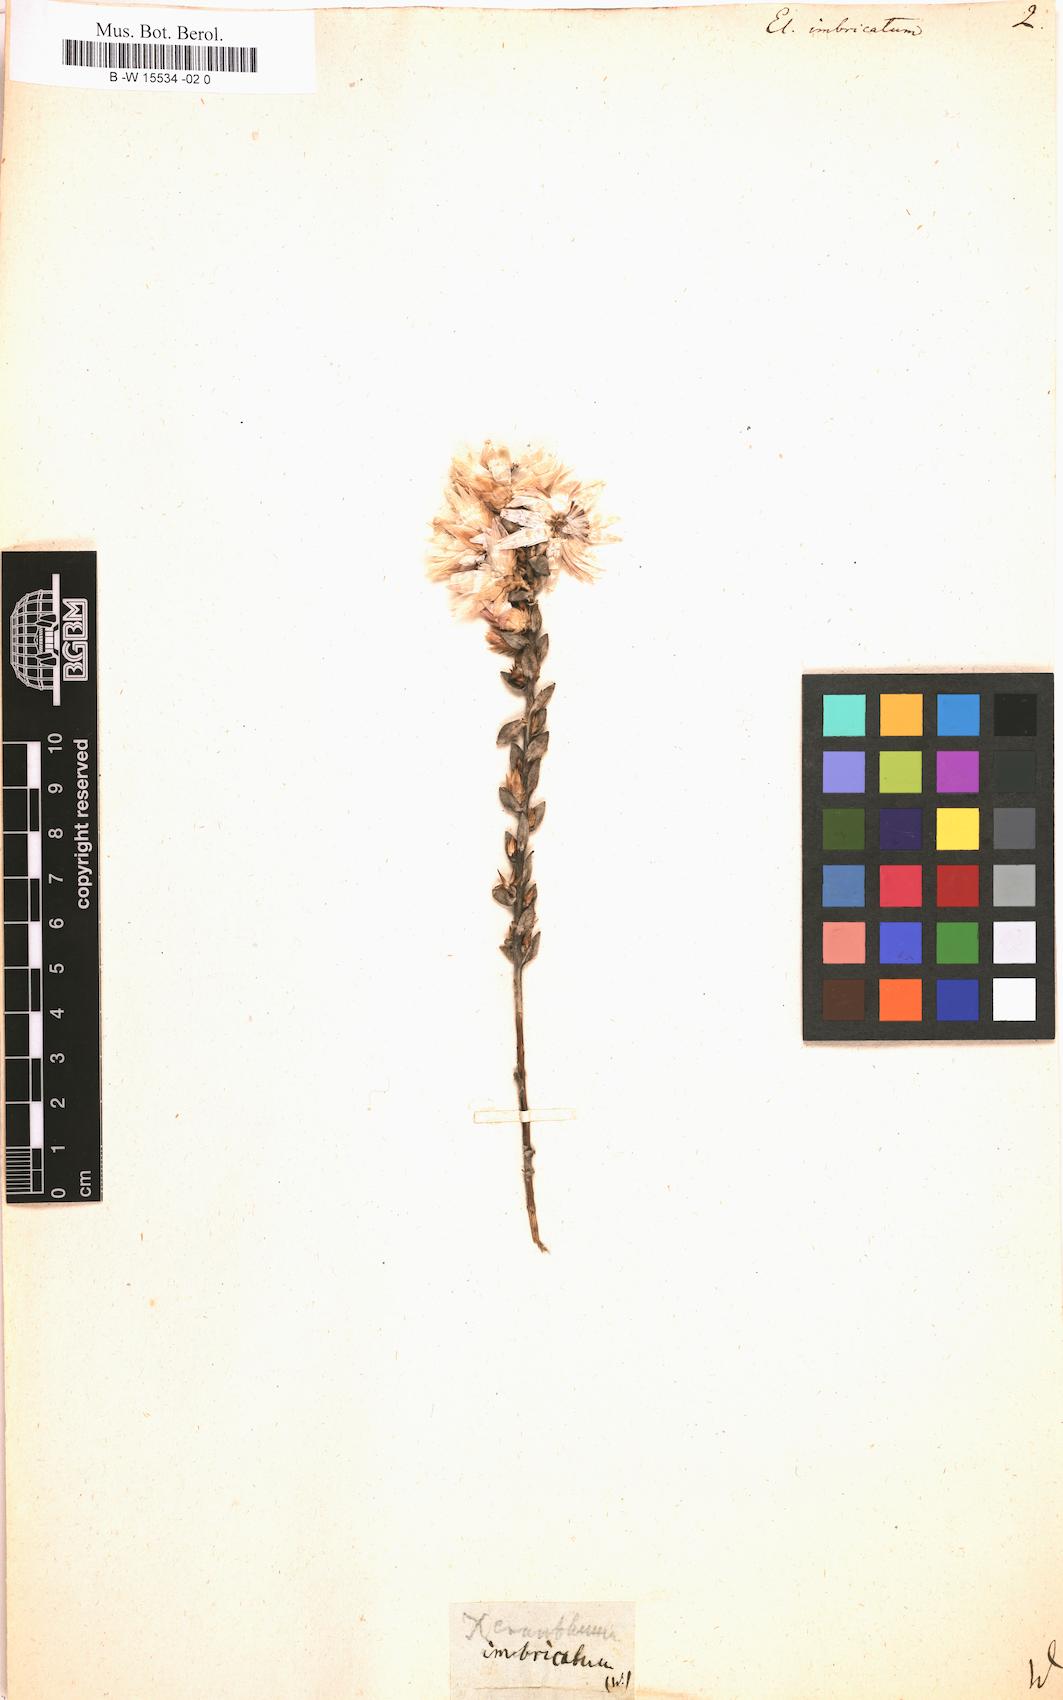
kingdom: Plantae
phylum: Tracheophyta
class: Magnoliopsida
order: Asterales
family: Asteraceae
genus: Helichrysum
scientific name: Helichrysum
